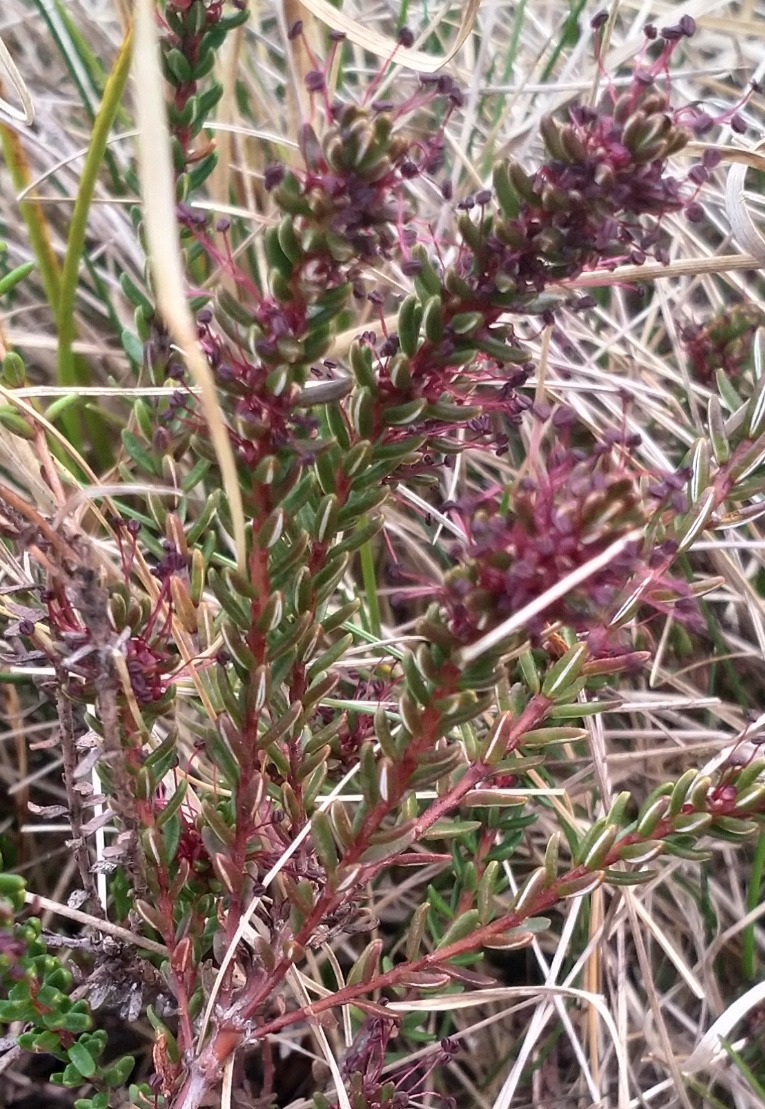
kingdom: Plantae
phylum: Tracheophyta
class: Magnoliopsida
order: Ericales
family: Ericaceae
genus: Empetrum
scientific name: Empetrum nigrum
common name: Revling
